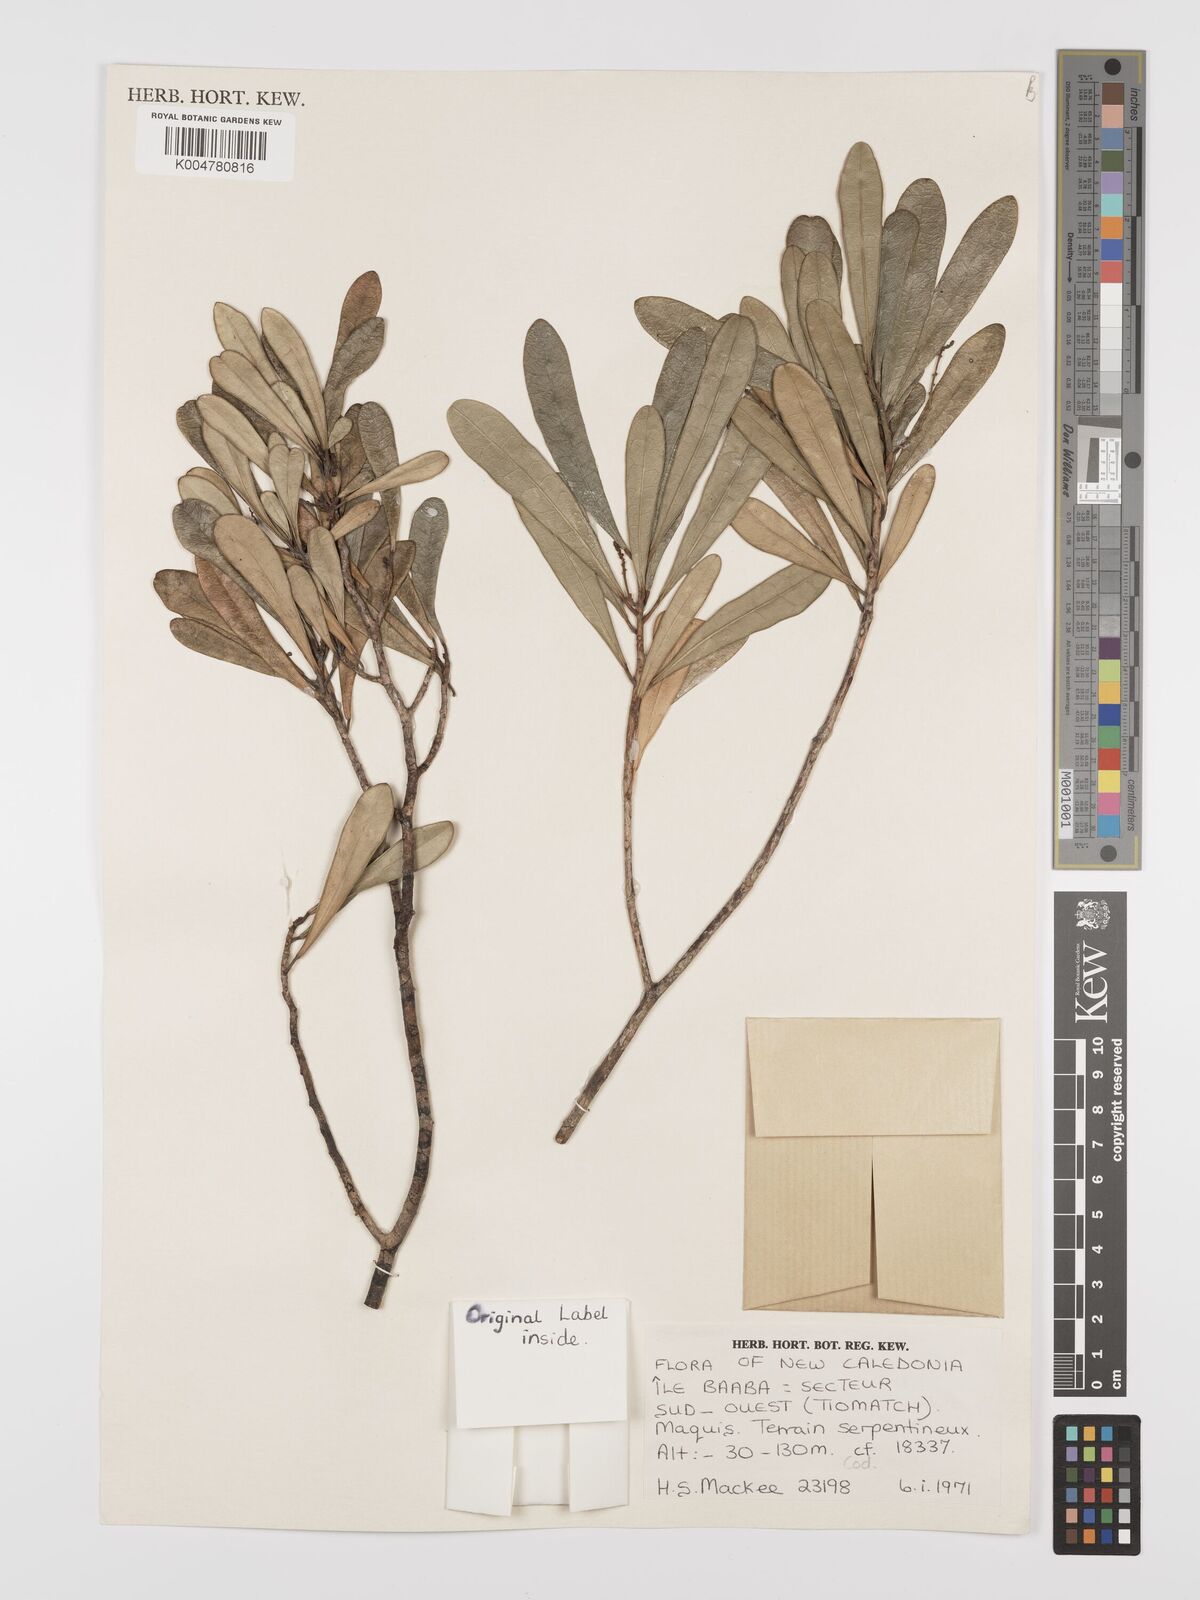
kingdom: Plantae
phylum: Tracheophyta
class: Magnoliopsida
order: Malpighiales
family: Euphorbiaceae
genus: Codiaeum
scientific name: Codiaeum
